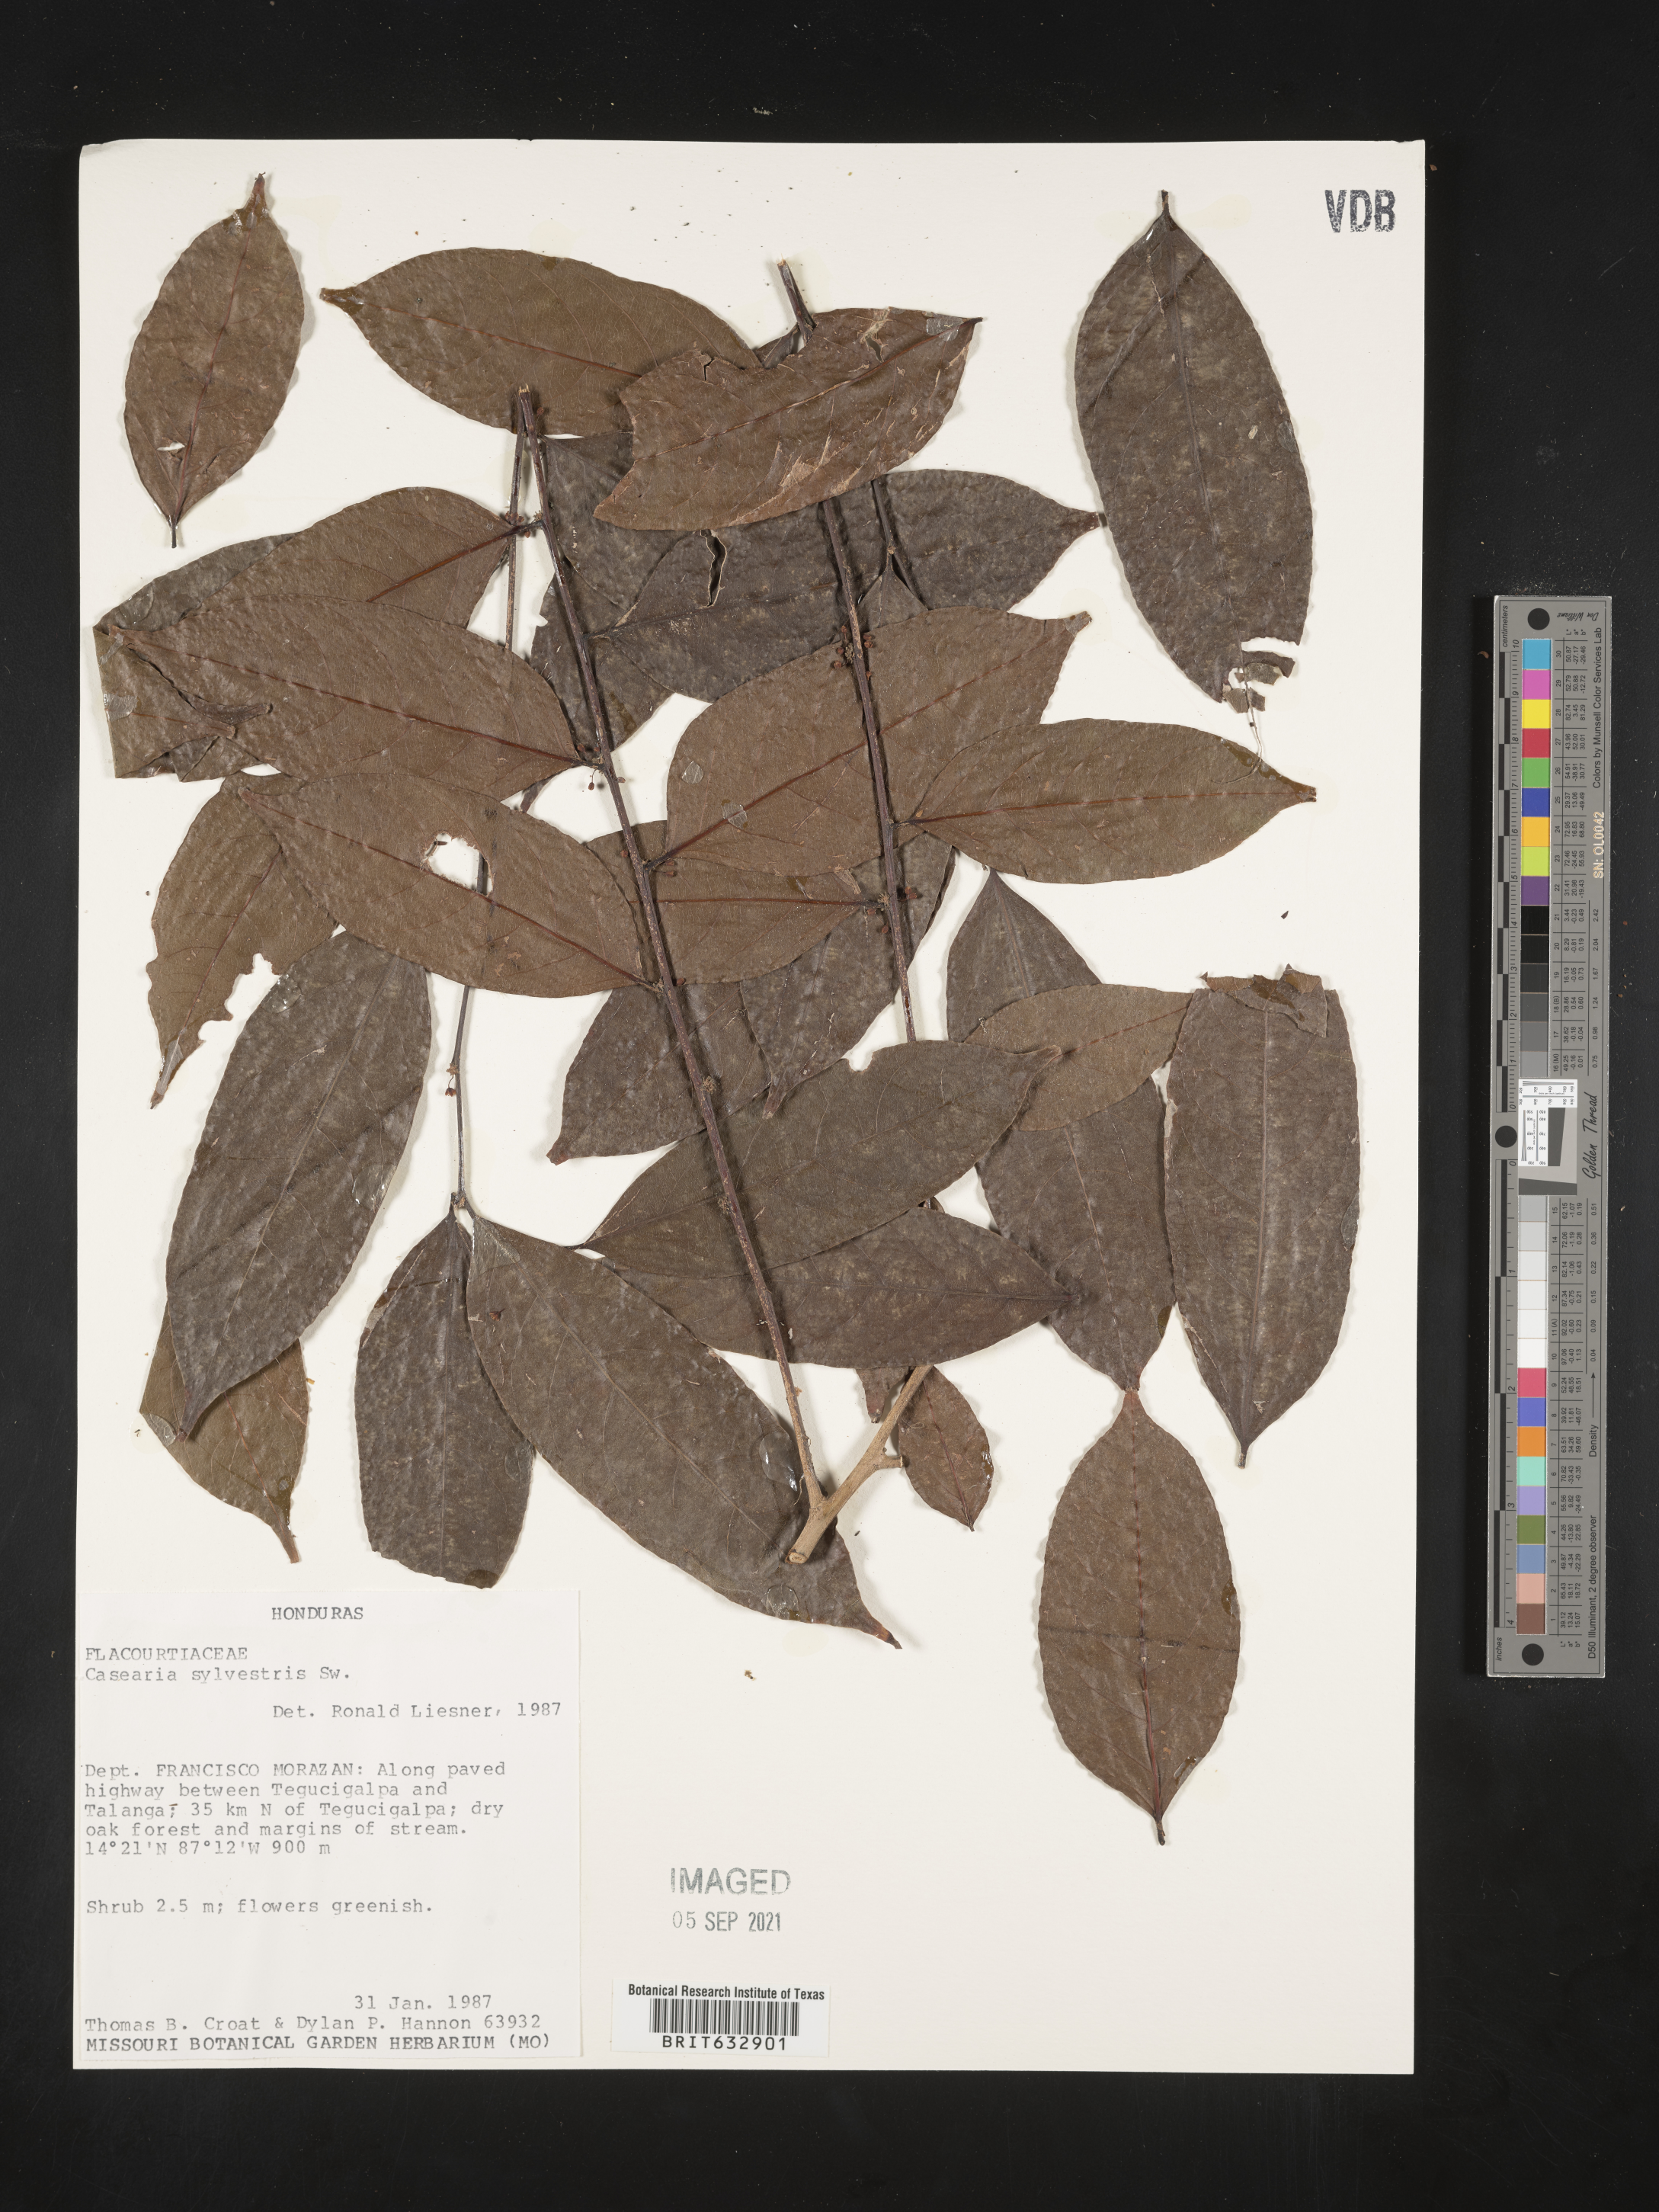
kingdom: Plantae
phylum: Tracheophyta
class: Magnoliopsida
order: Malpighiales
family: Salicaceae
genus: Casearia
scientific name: Casearia
